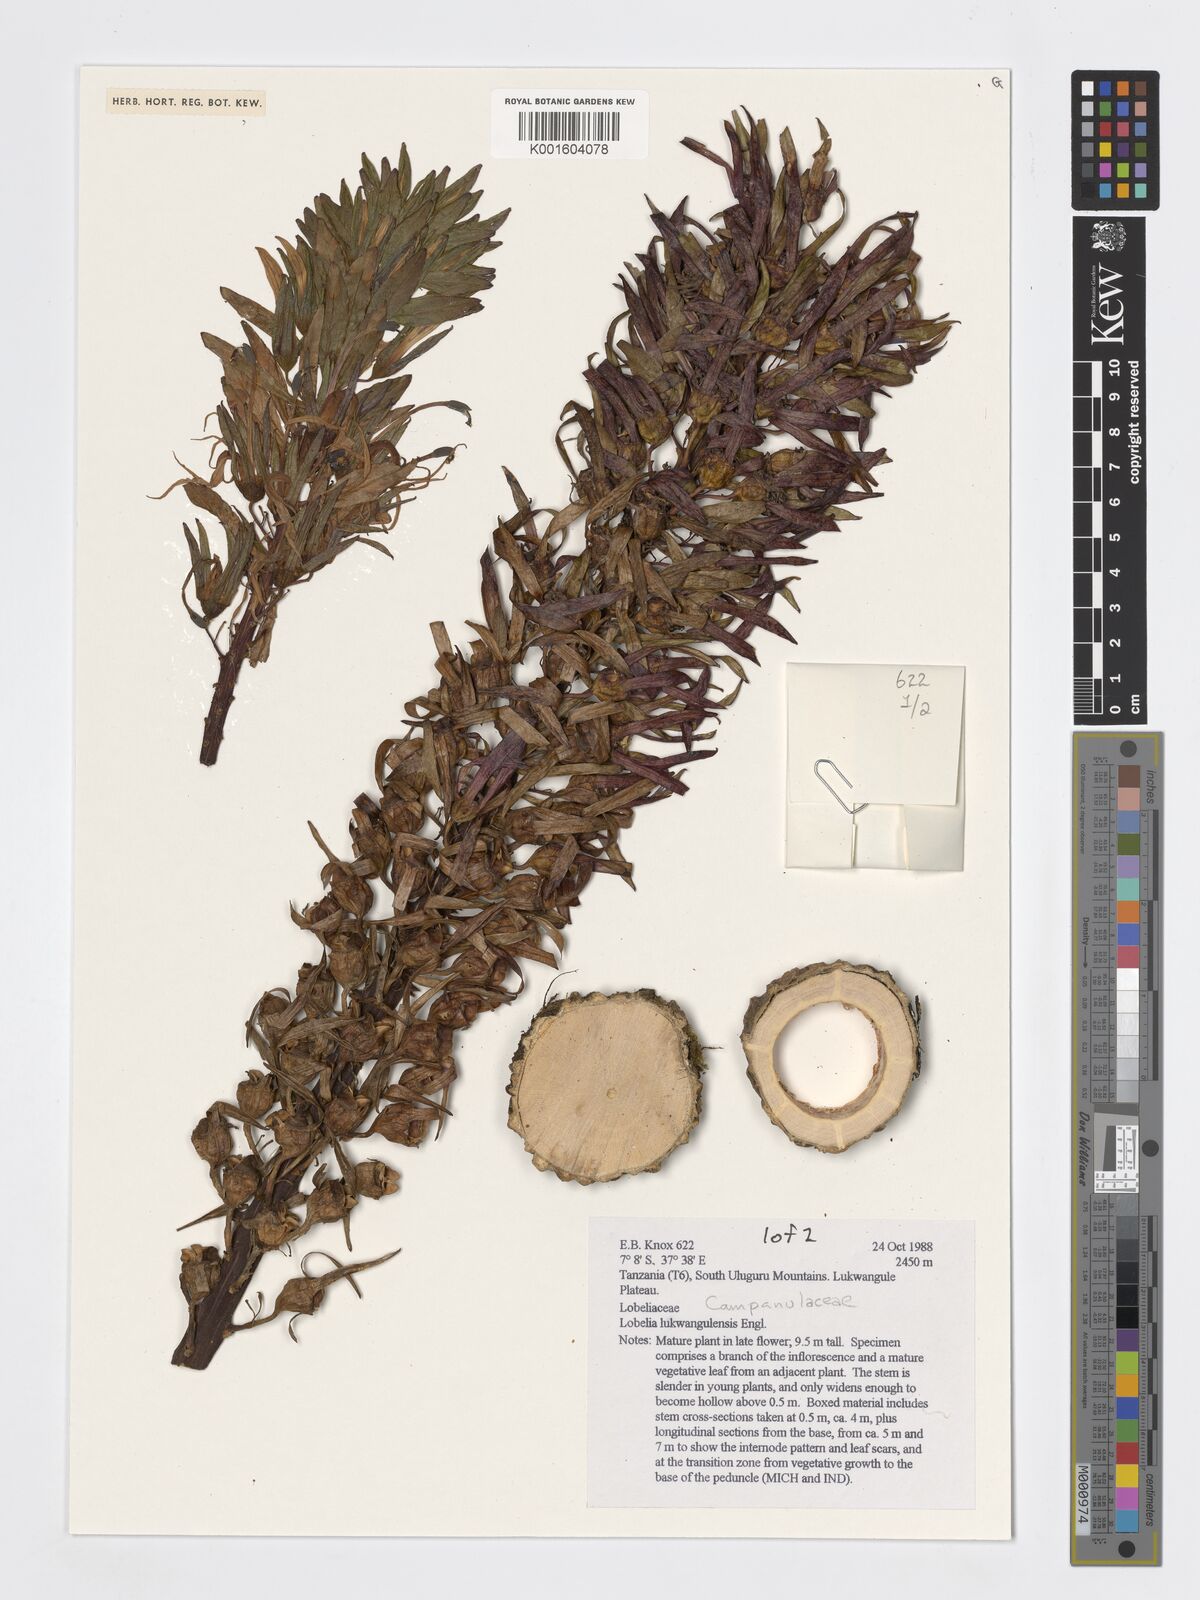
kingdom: Plantae
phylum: Tracheophyta
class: Magnoliopsida
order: Asterales
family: Campanulaceae
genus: Lobelia
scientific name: Lobelia lukwangulensis
